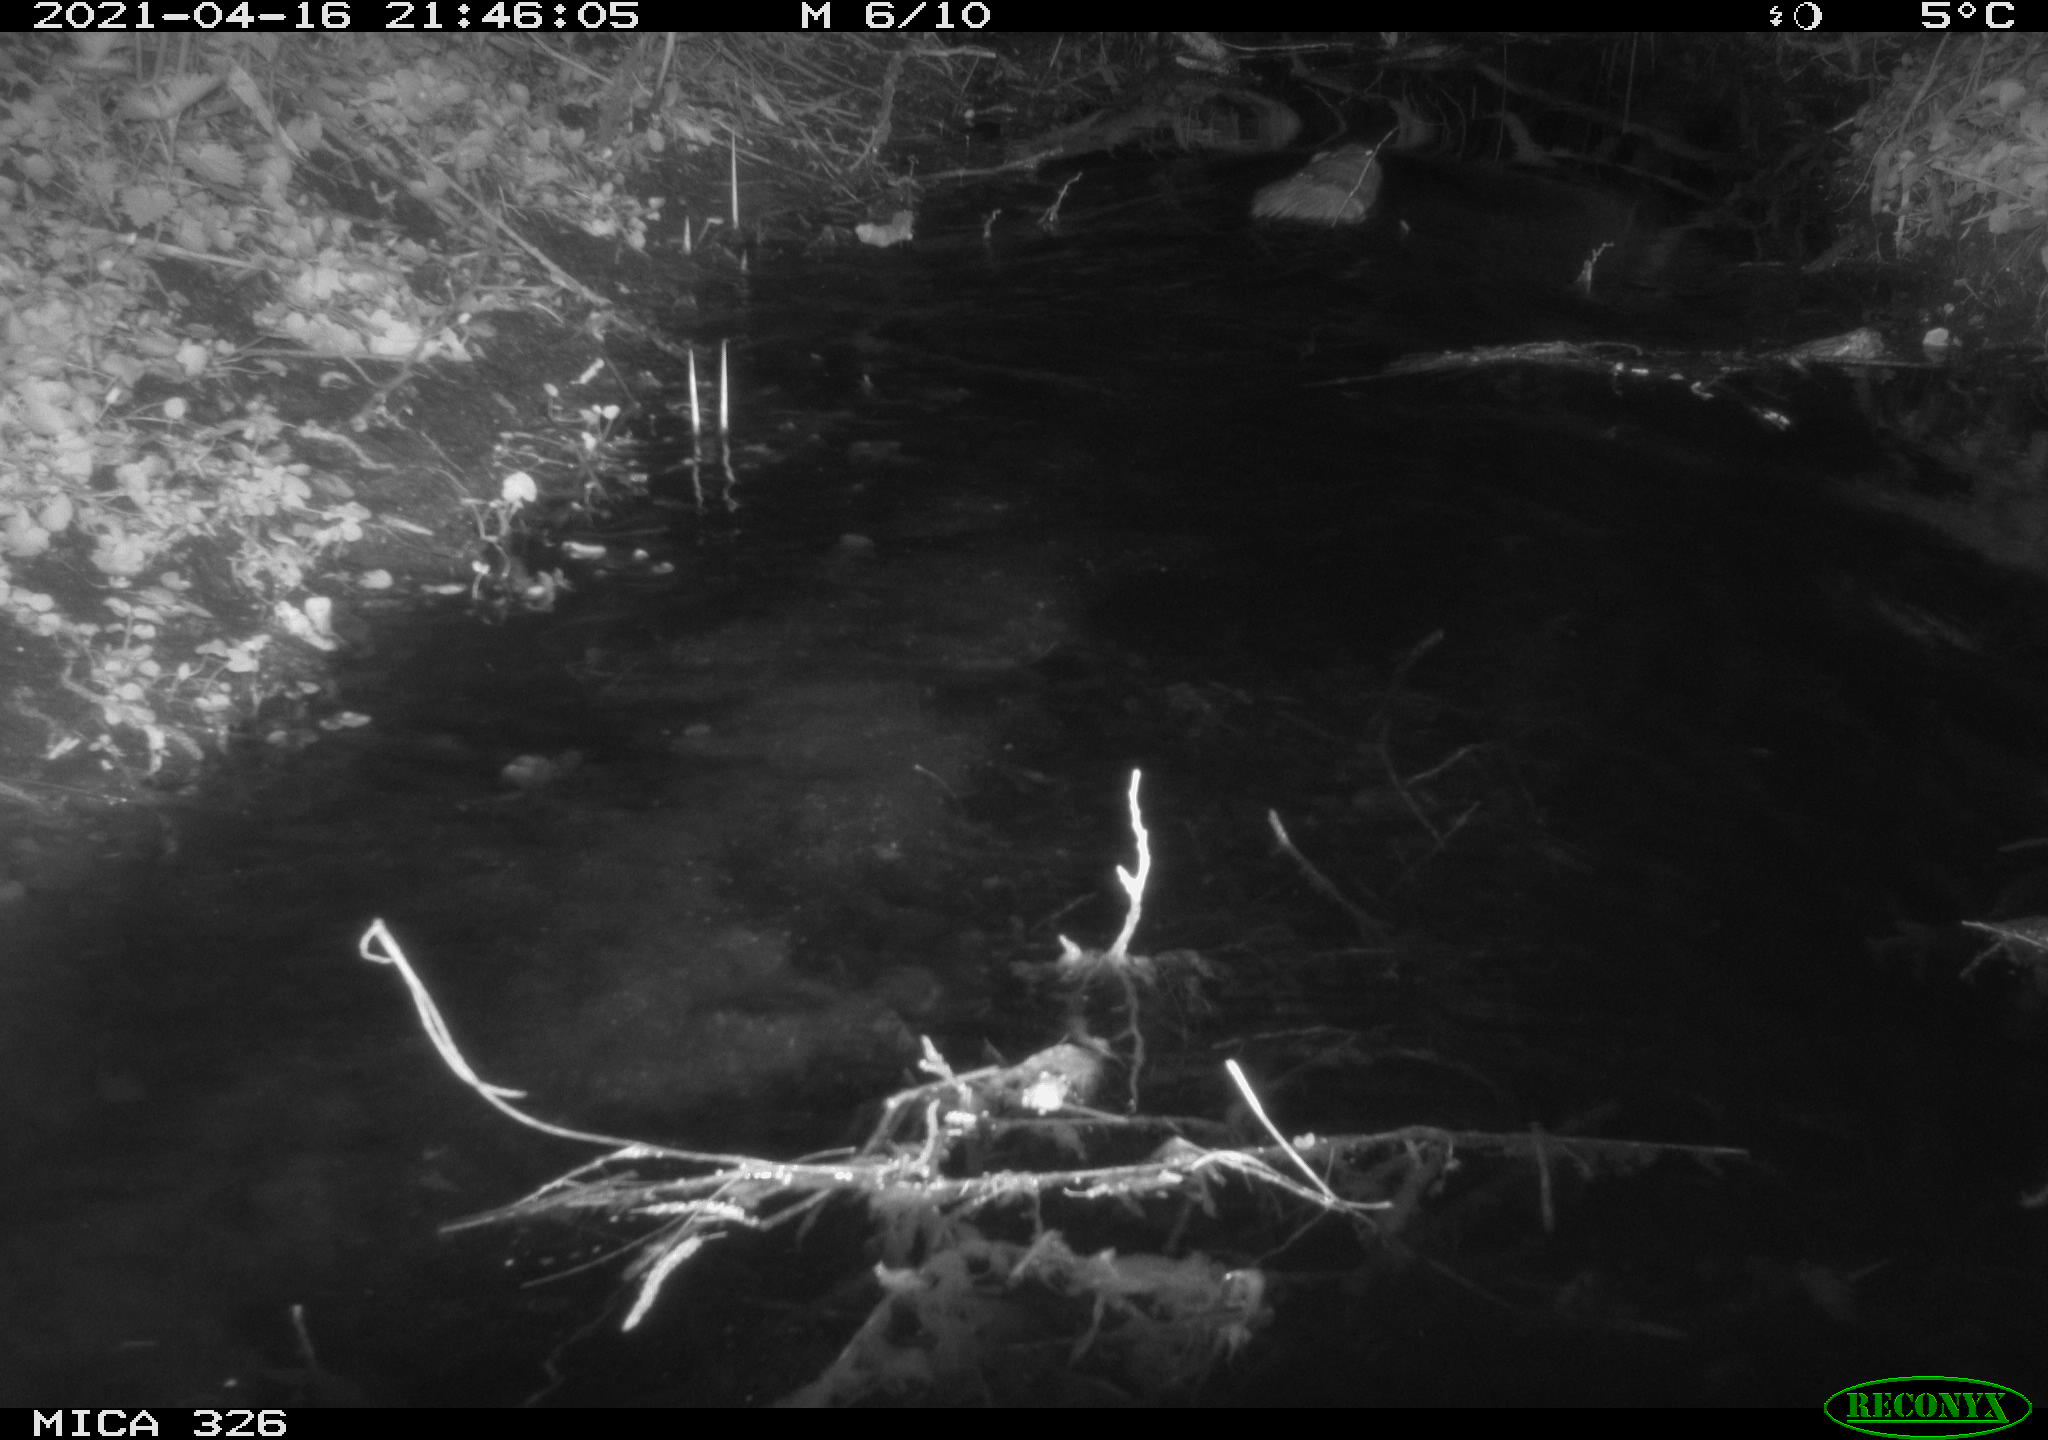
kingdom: Animalia
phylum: Chordata
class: Mammalia
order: Rodentia
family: Cricetidae
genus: Ondatra
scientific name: Ondatra zibethicus
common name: Muskrat
